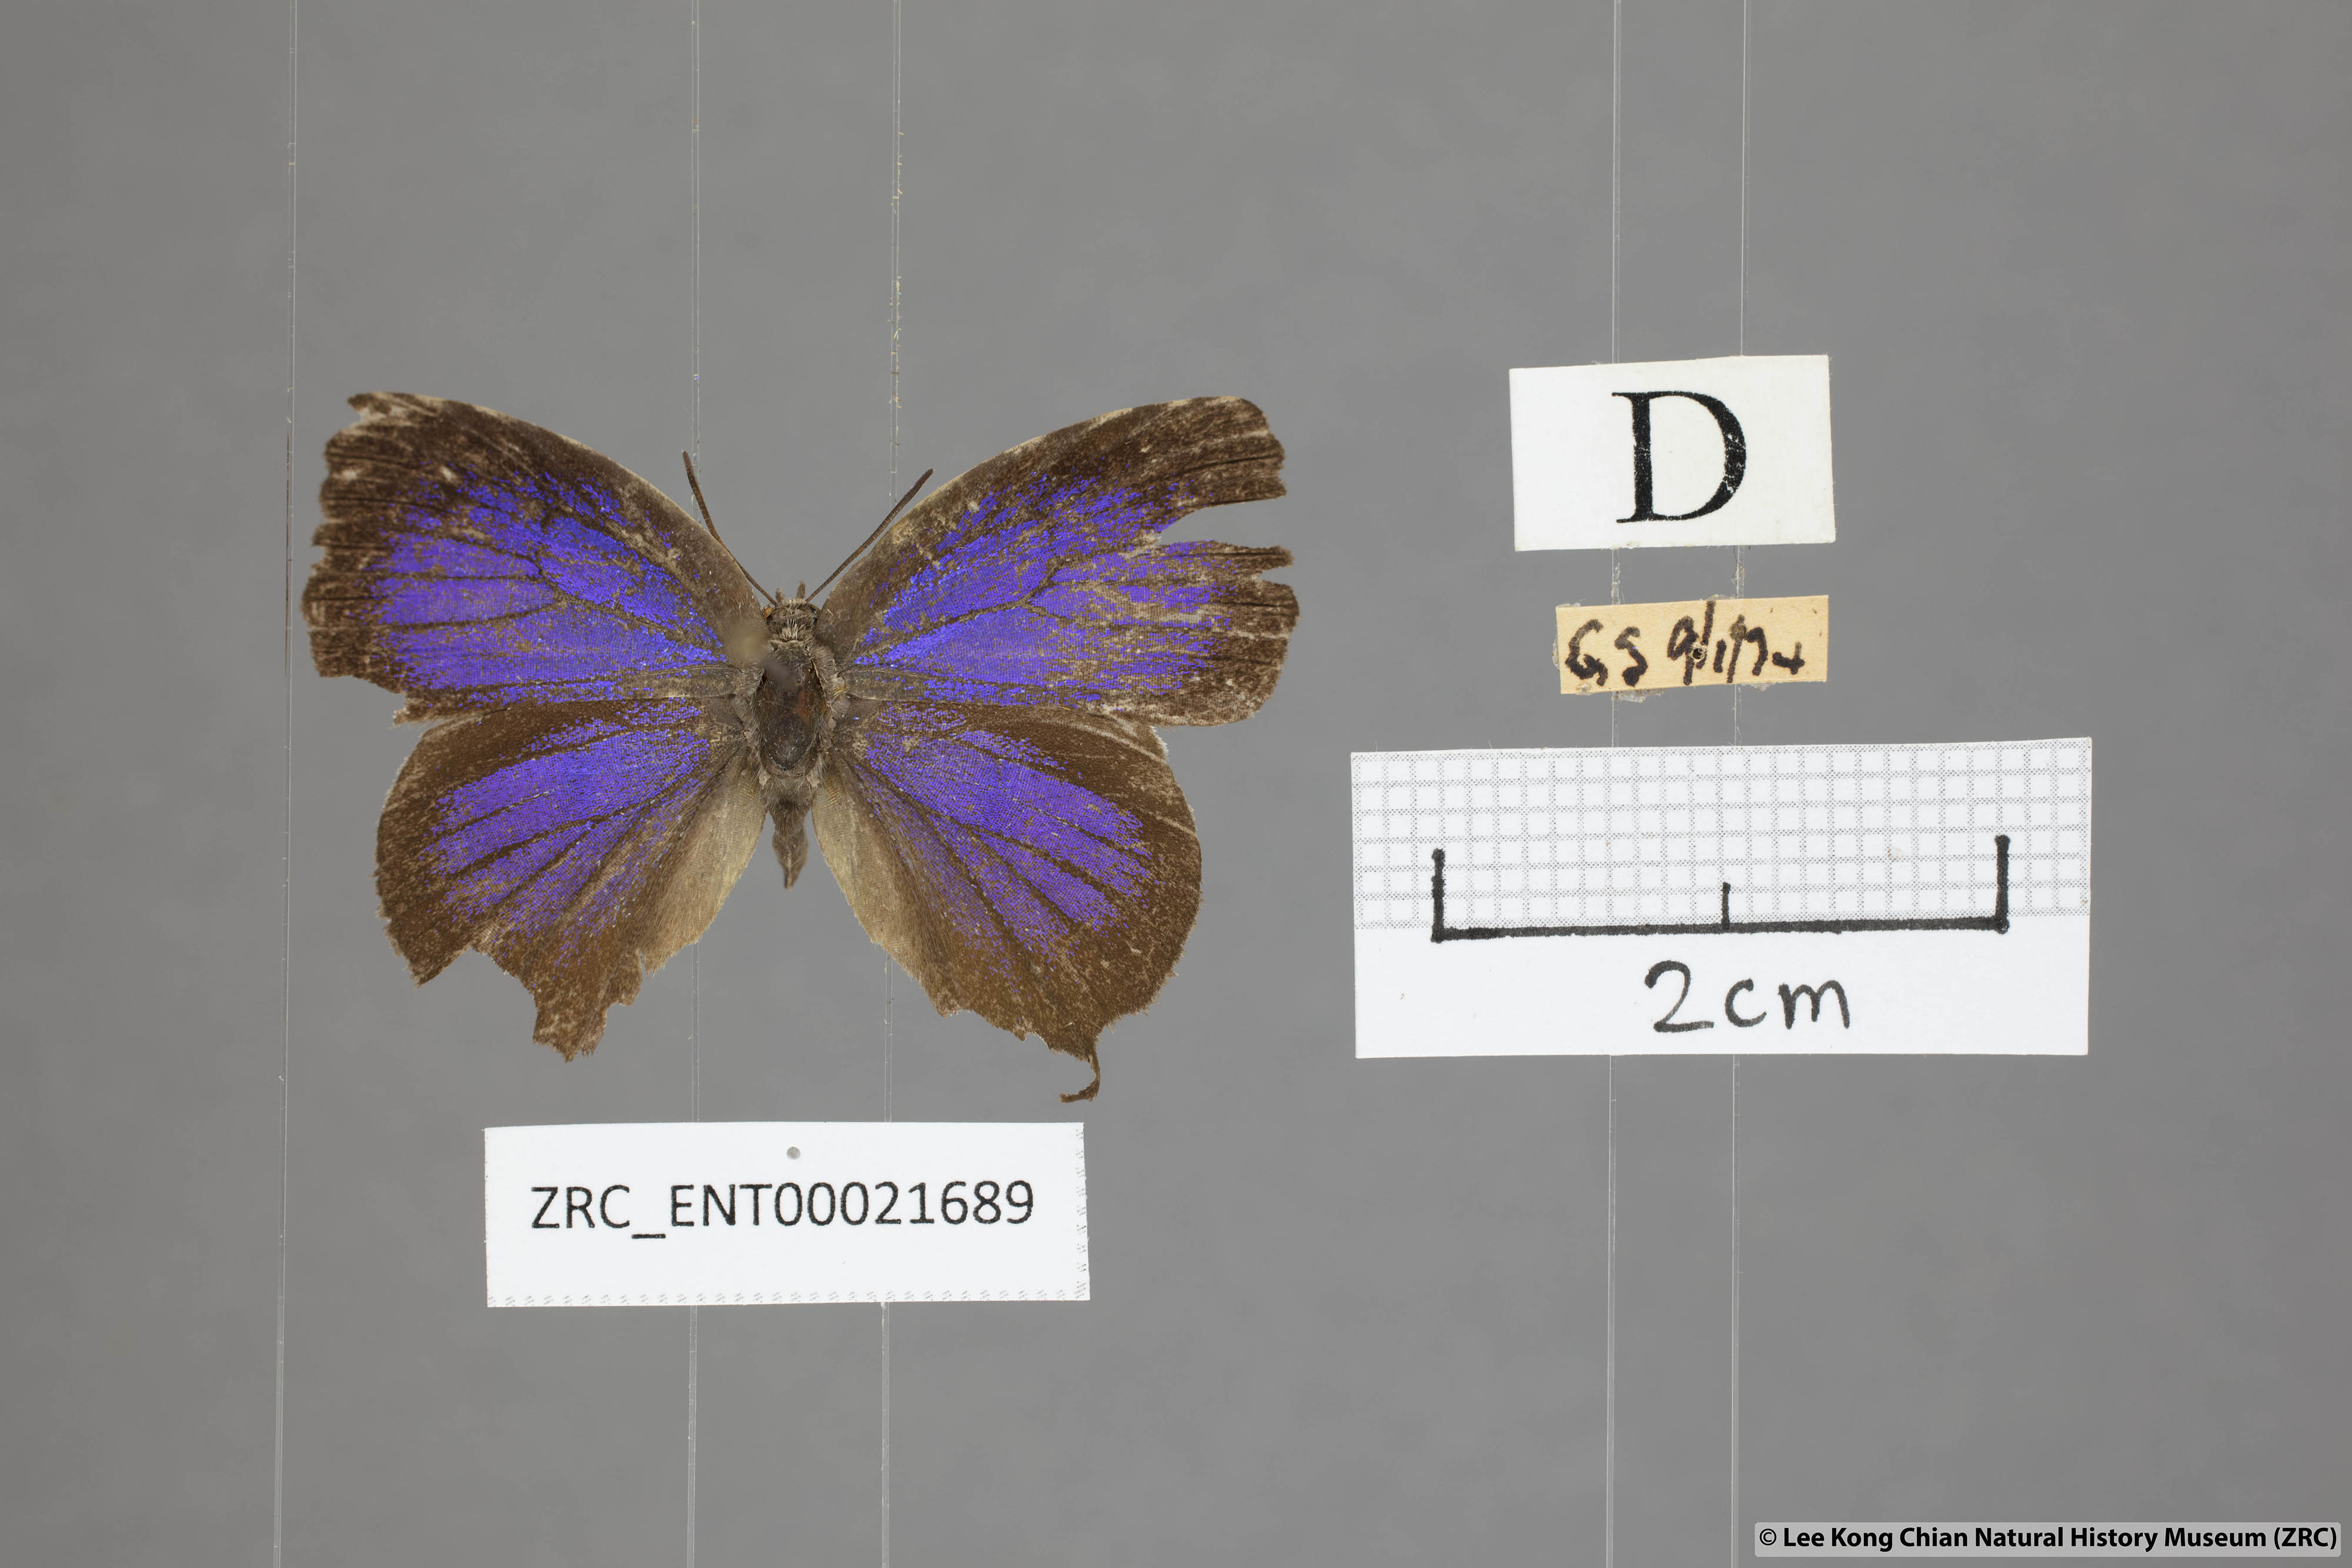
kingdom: Animalia
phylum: Arthropoda
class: Insecta
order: Lepidoptera
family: Lycaenidae
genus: Mahathala
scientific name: Mahathala ameria
